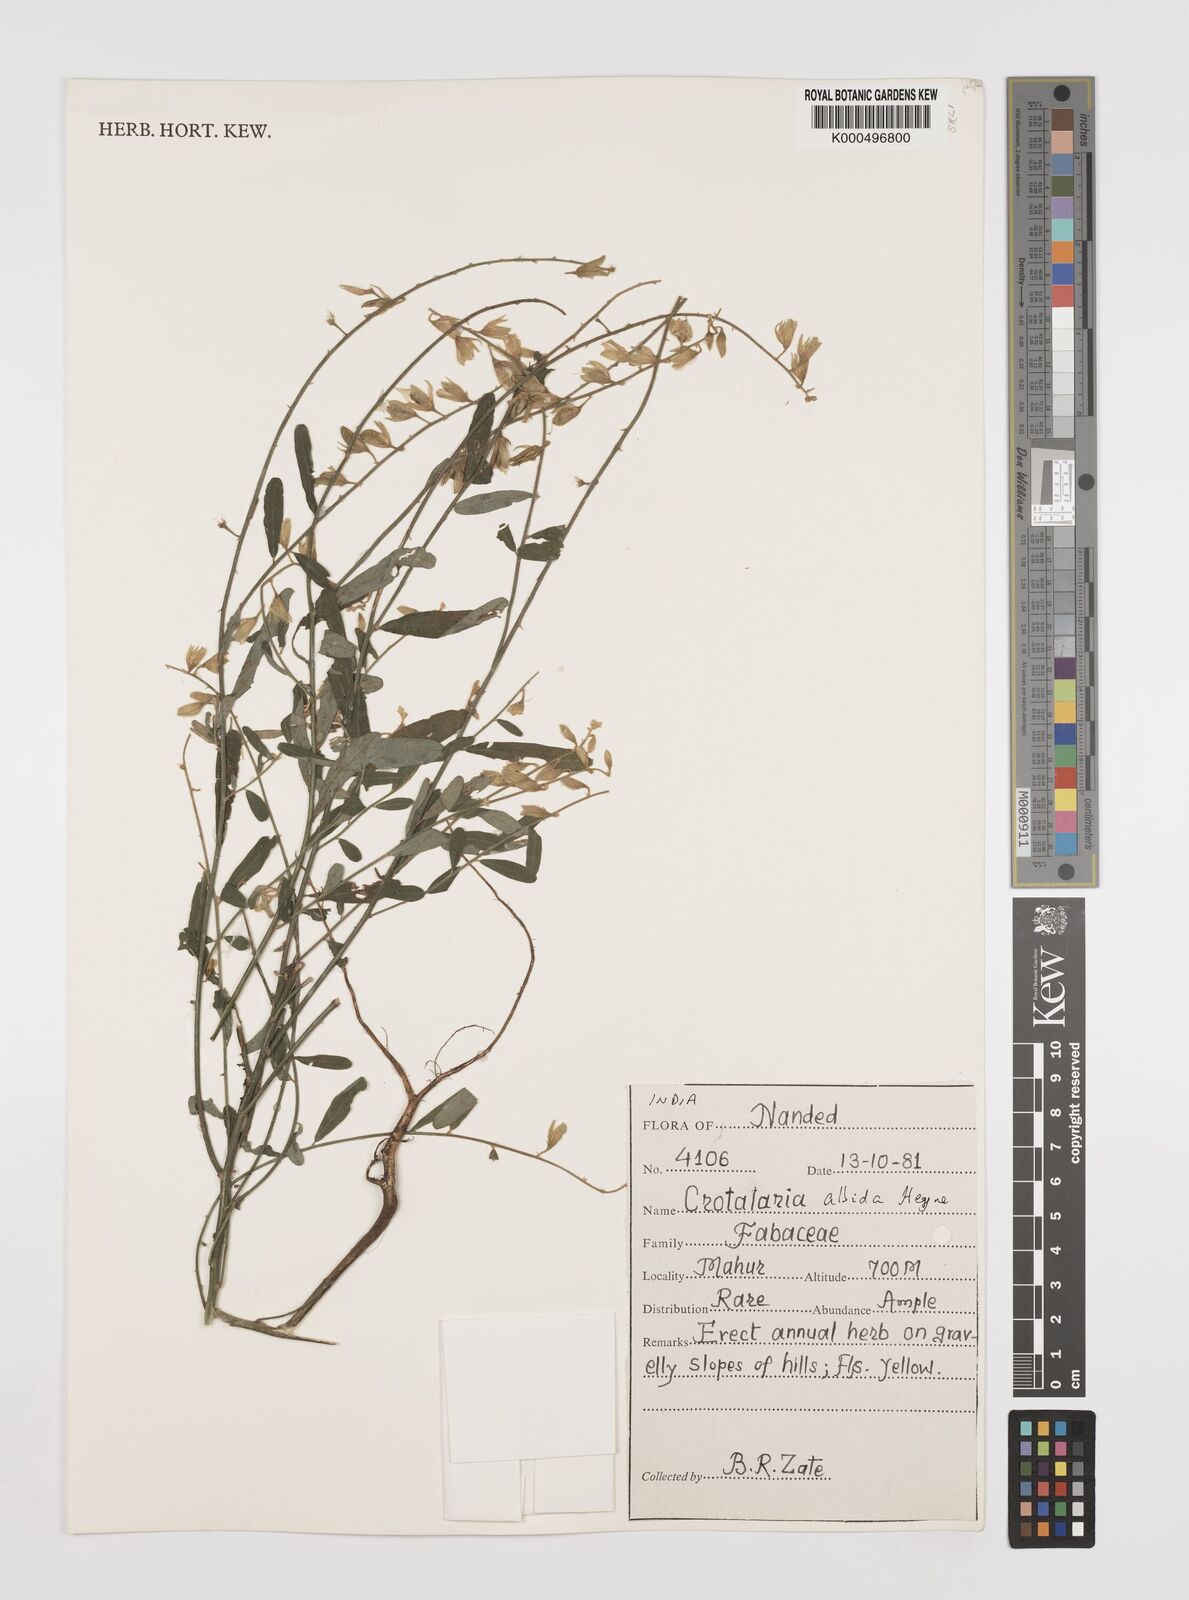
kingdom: Plantae
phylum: Tracheophyta
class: Magnoliopsida
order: Fabales
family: Fabaceae
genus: Crotalaria
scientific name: Crotalaria albida
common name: Taiwan crotalaria
